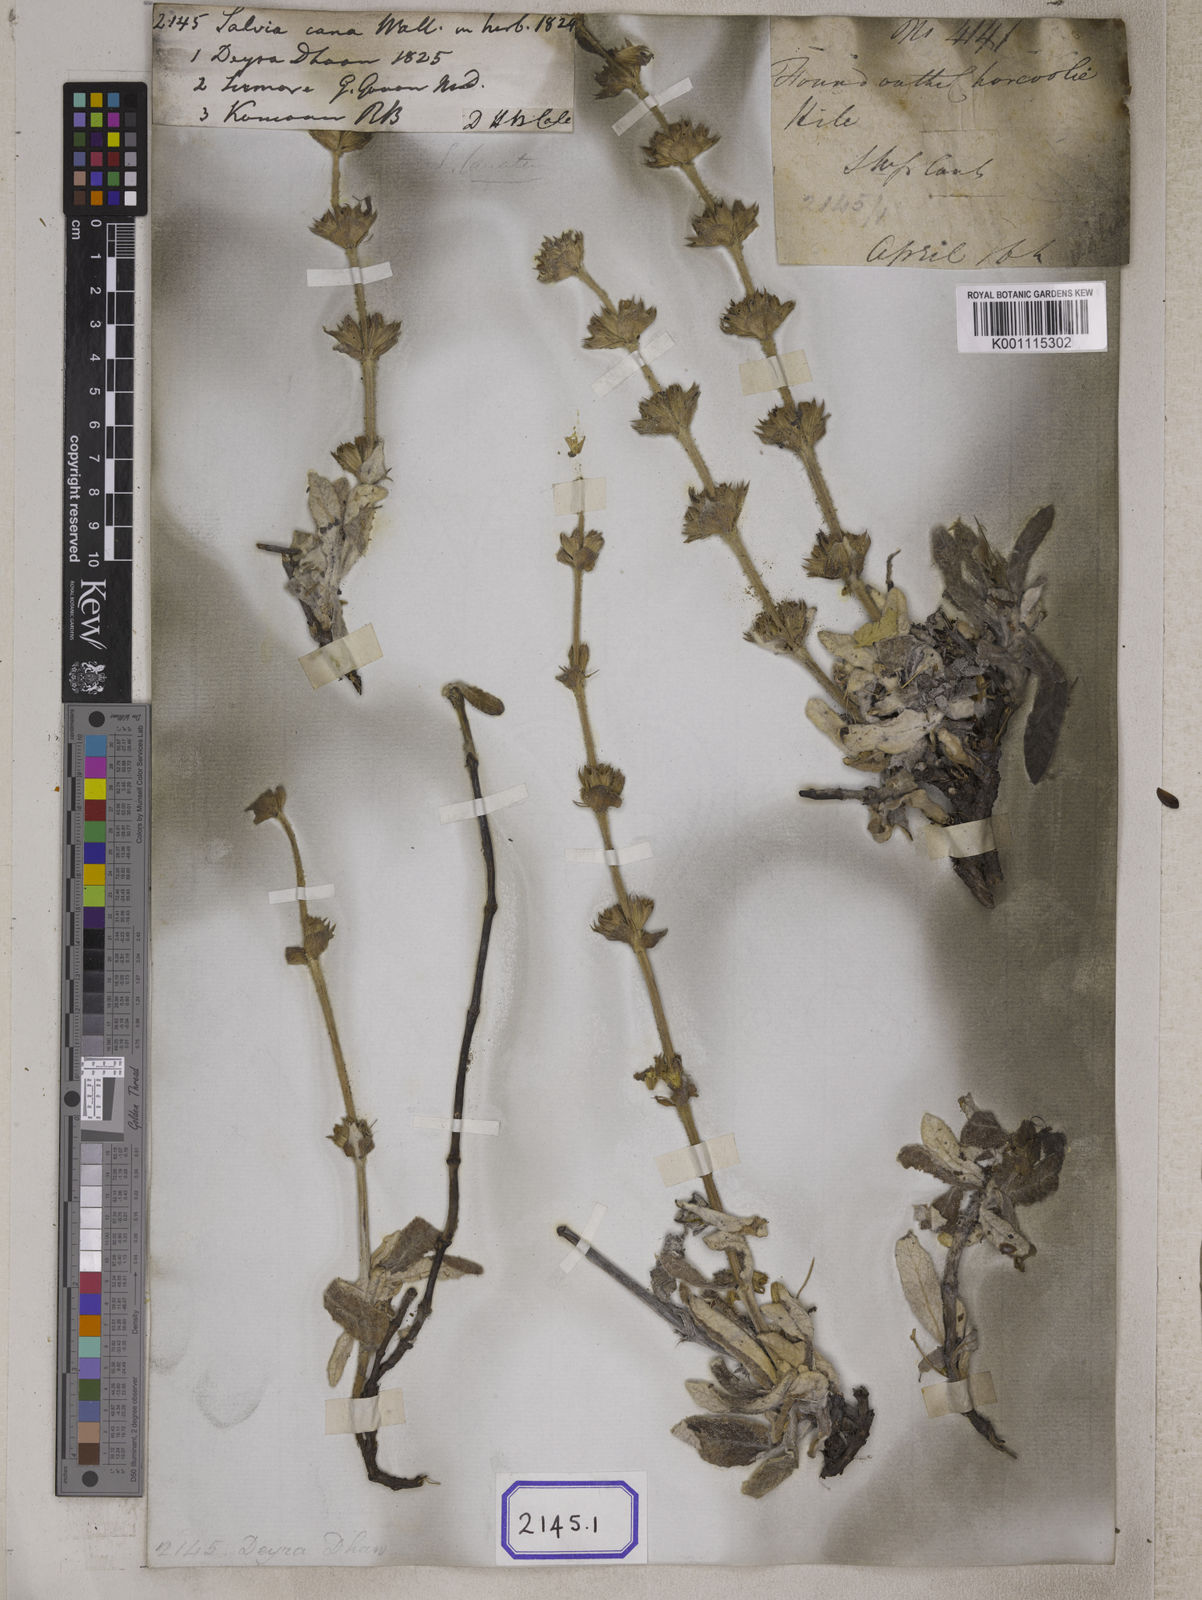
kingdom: Plantae
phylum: Tracheophyta
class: Magnoliopsida
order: Lamiales
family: Lamiaceae
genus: Salvia
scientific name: Salvia
